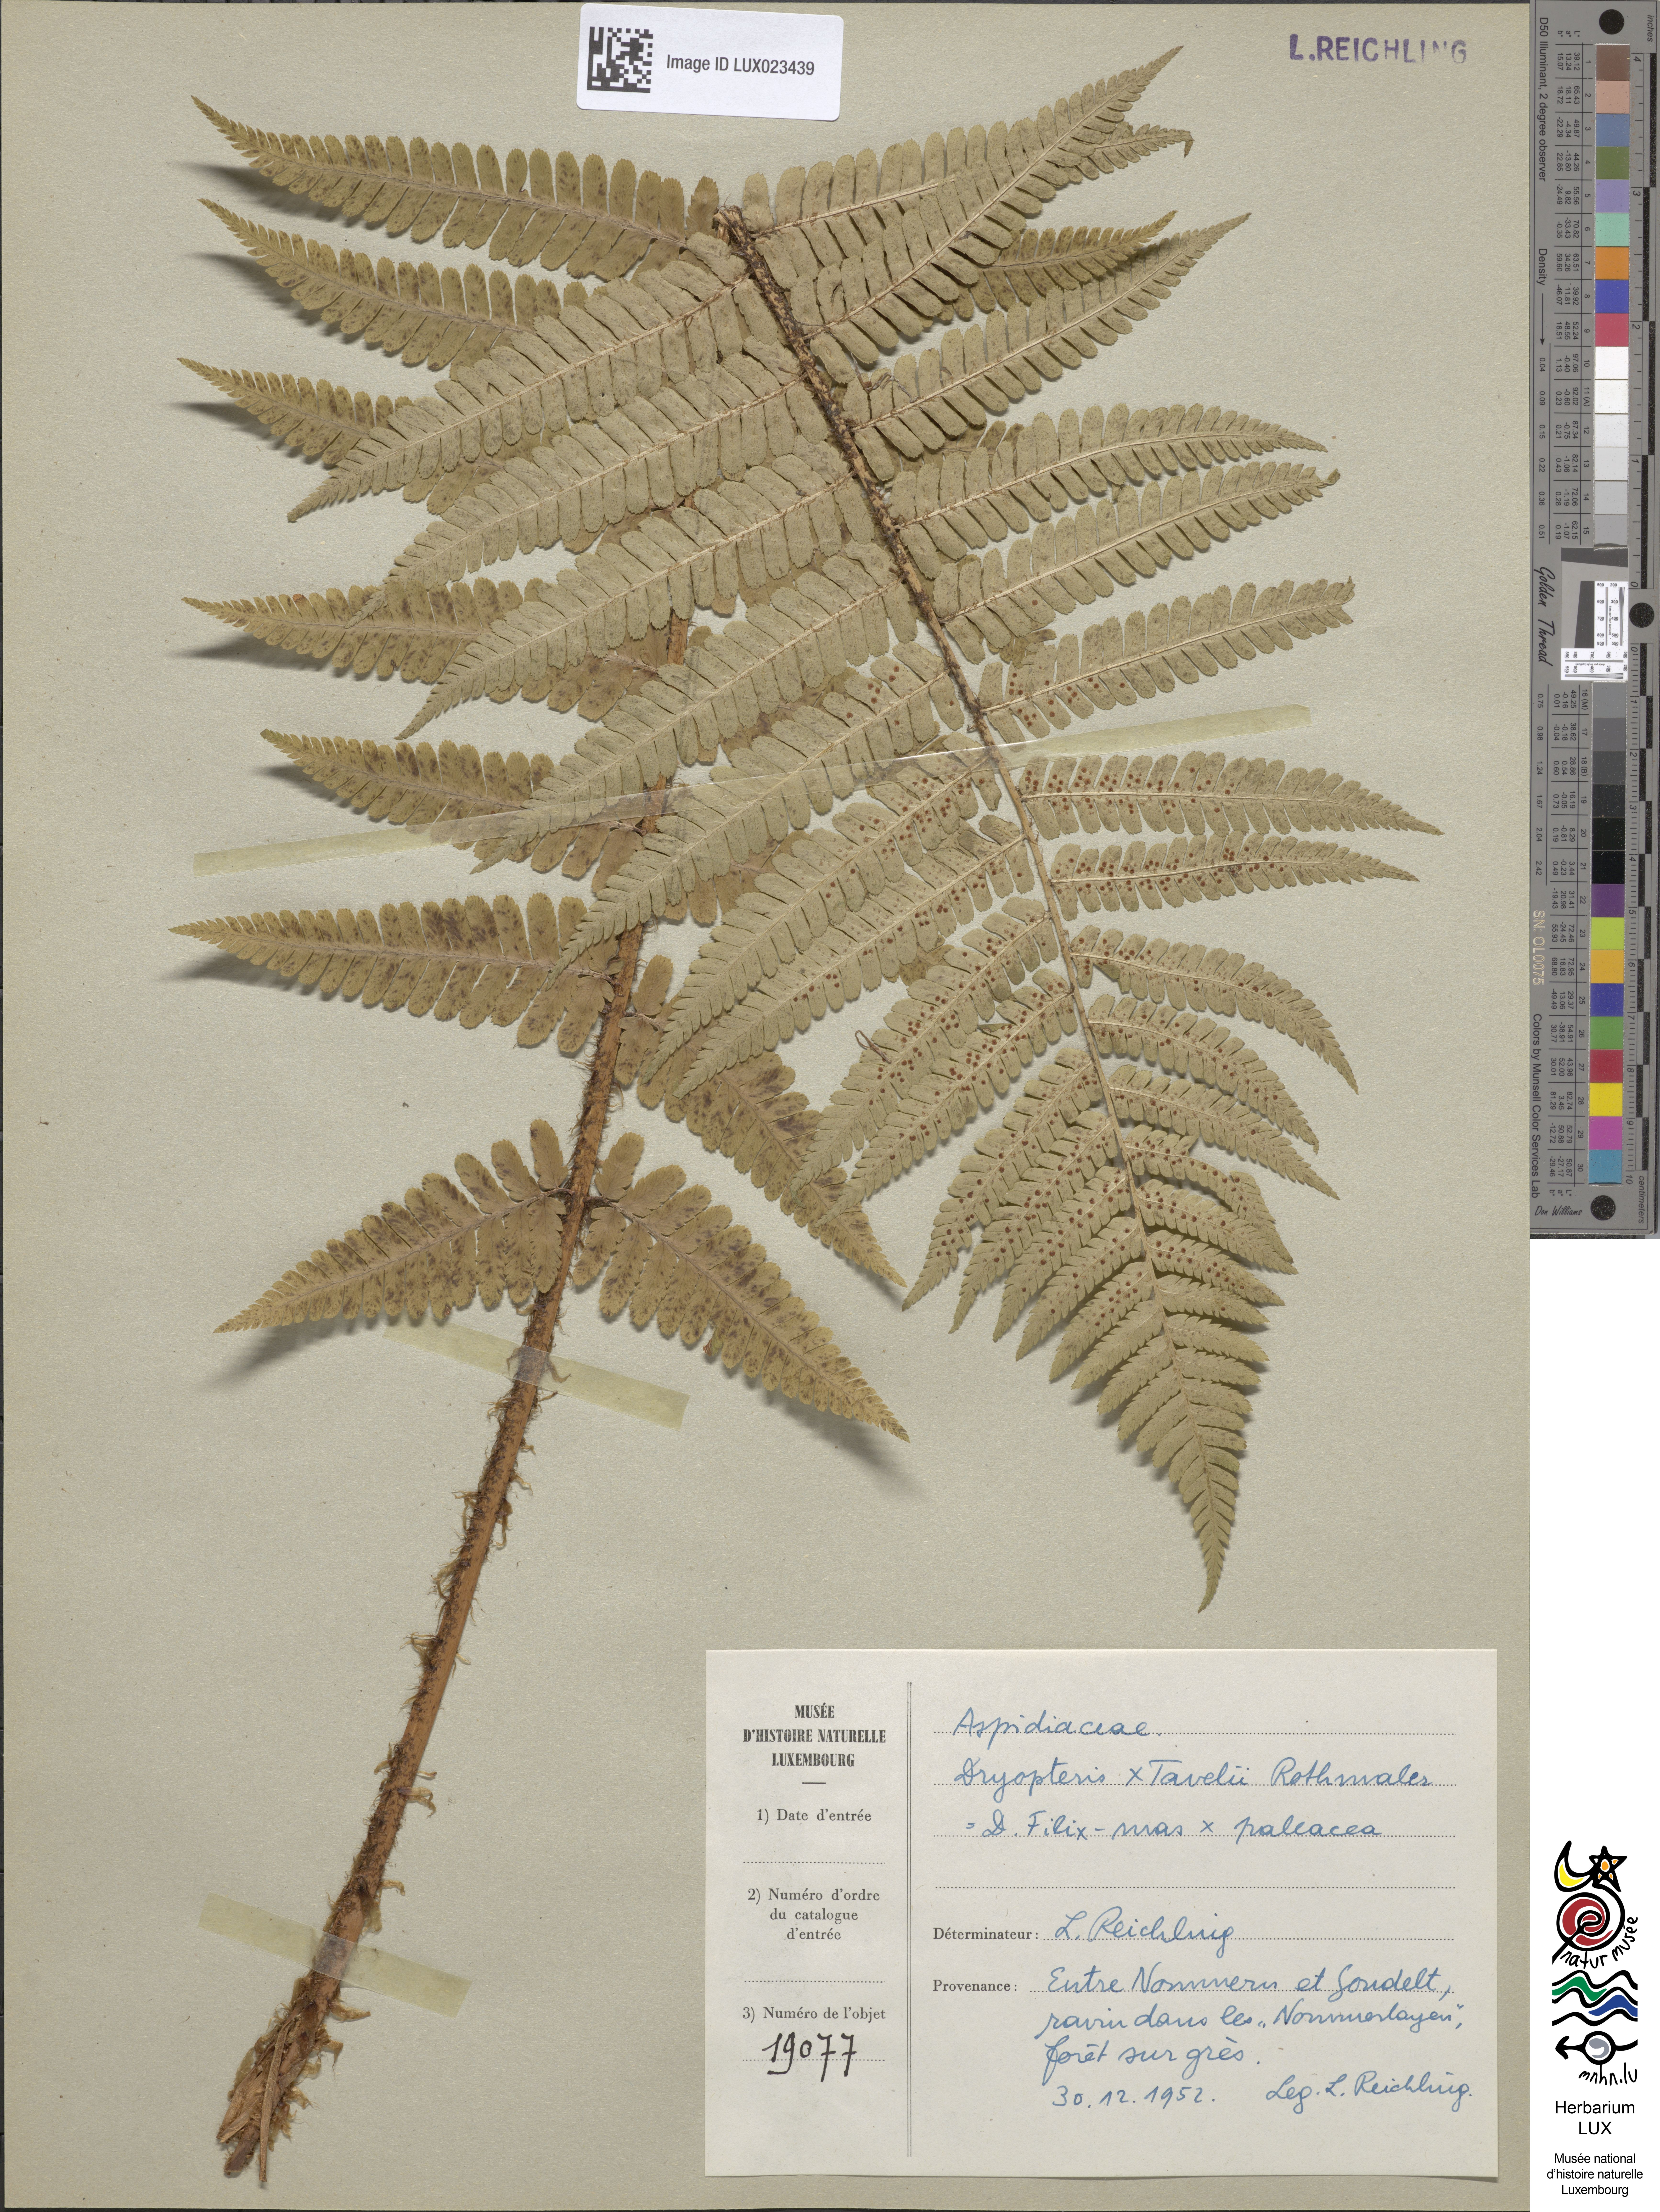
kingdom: Plantae
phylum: Tracheophyta
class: Polypodiopsida
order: Polypodiales
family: Dryopteridaceae
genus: Dryopteris
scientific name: Dryopteris borreri
